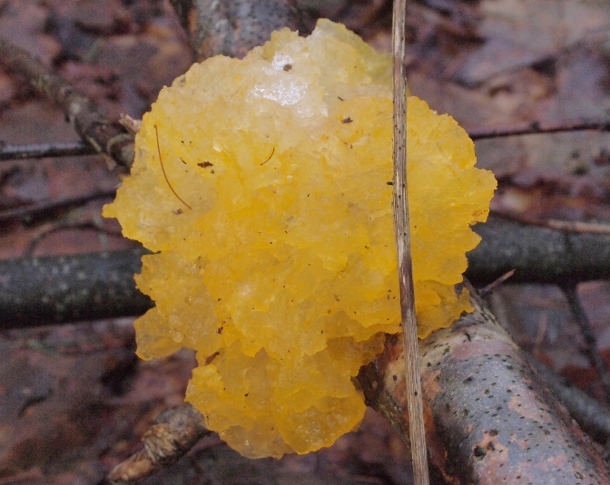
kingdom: Fungi
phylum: Basidiomycota
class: Tremellomycetes
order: Tremellales
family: Tremellaceae
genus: Tremella
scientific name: Tremella mesenterica
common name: gul bævresvamp
